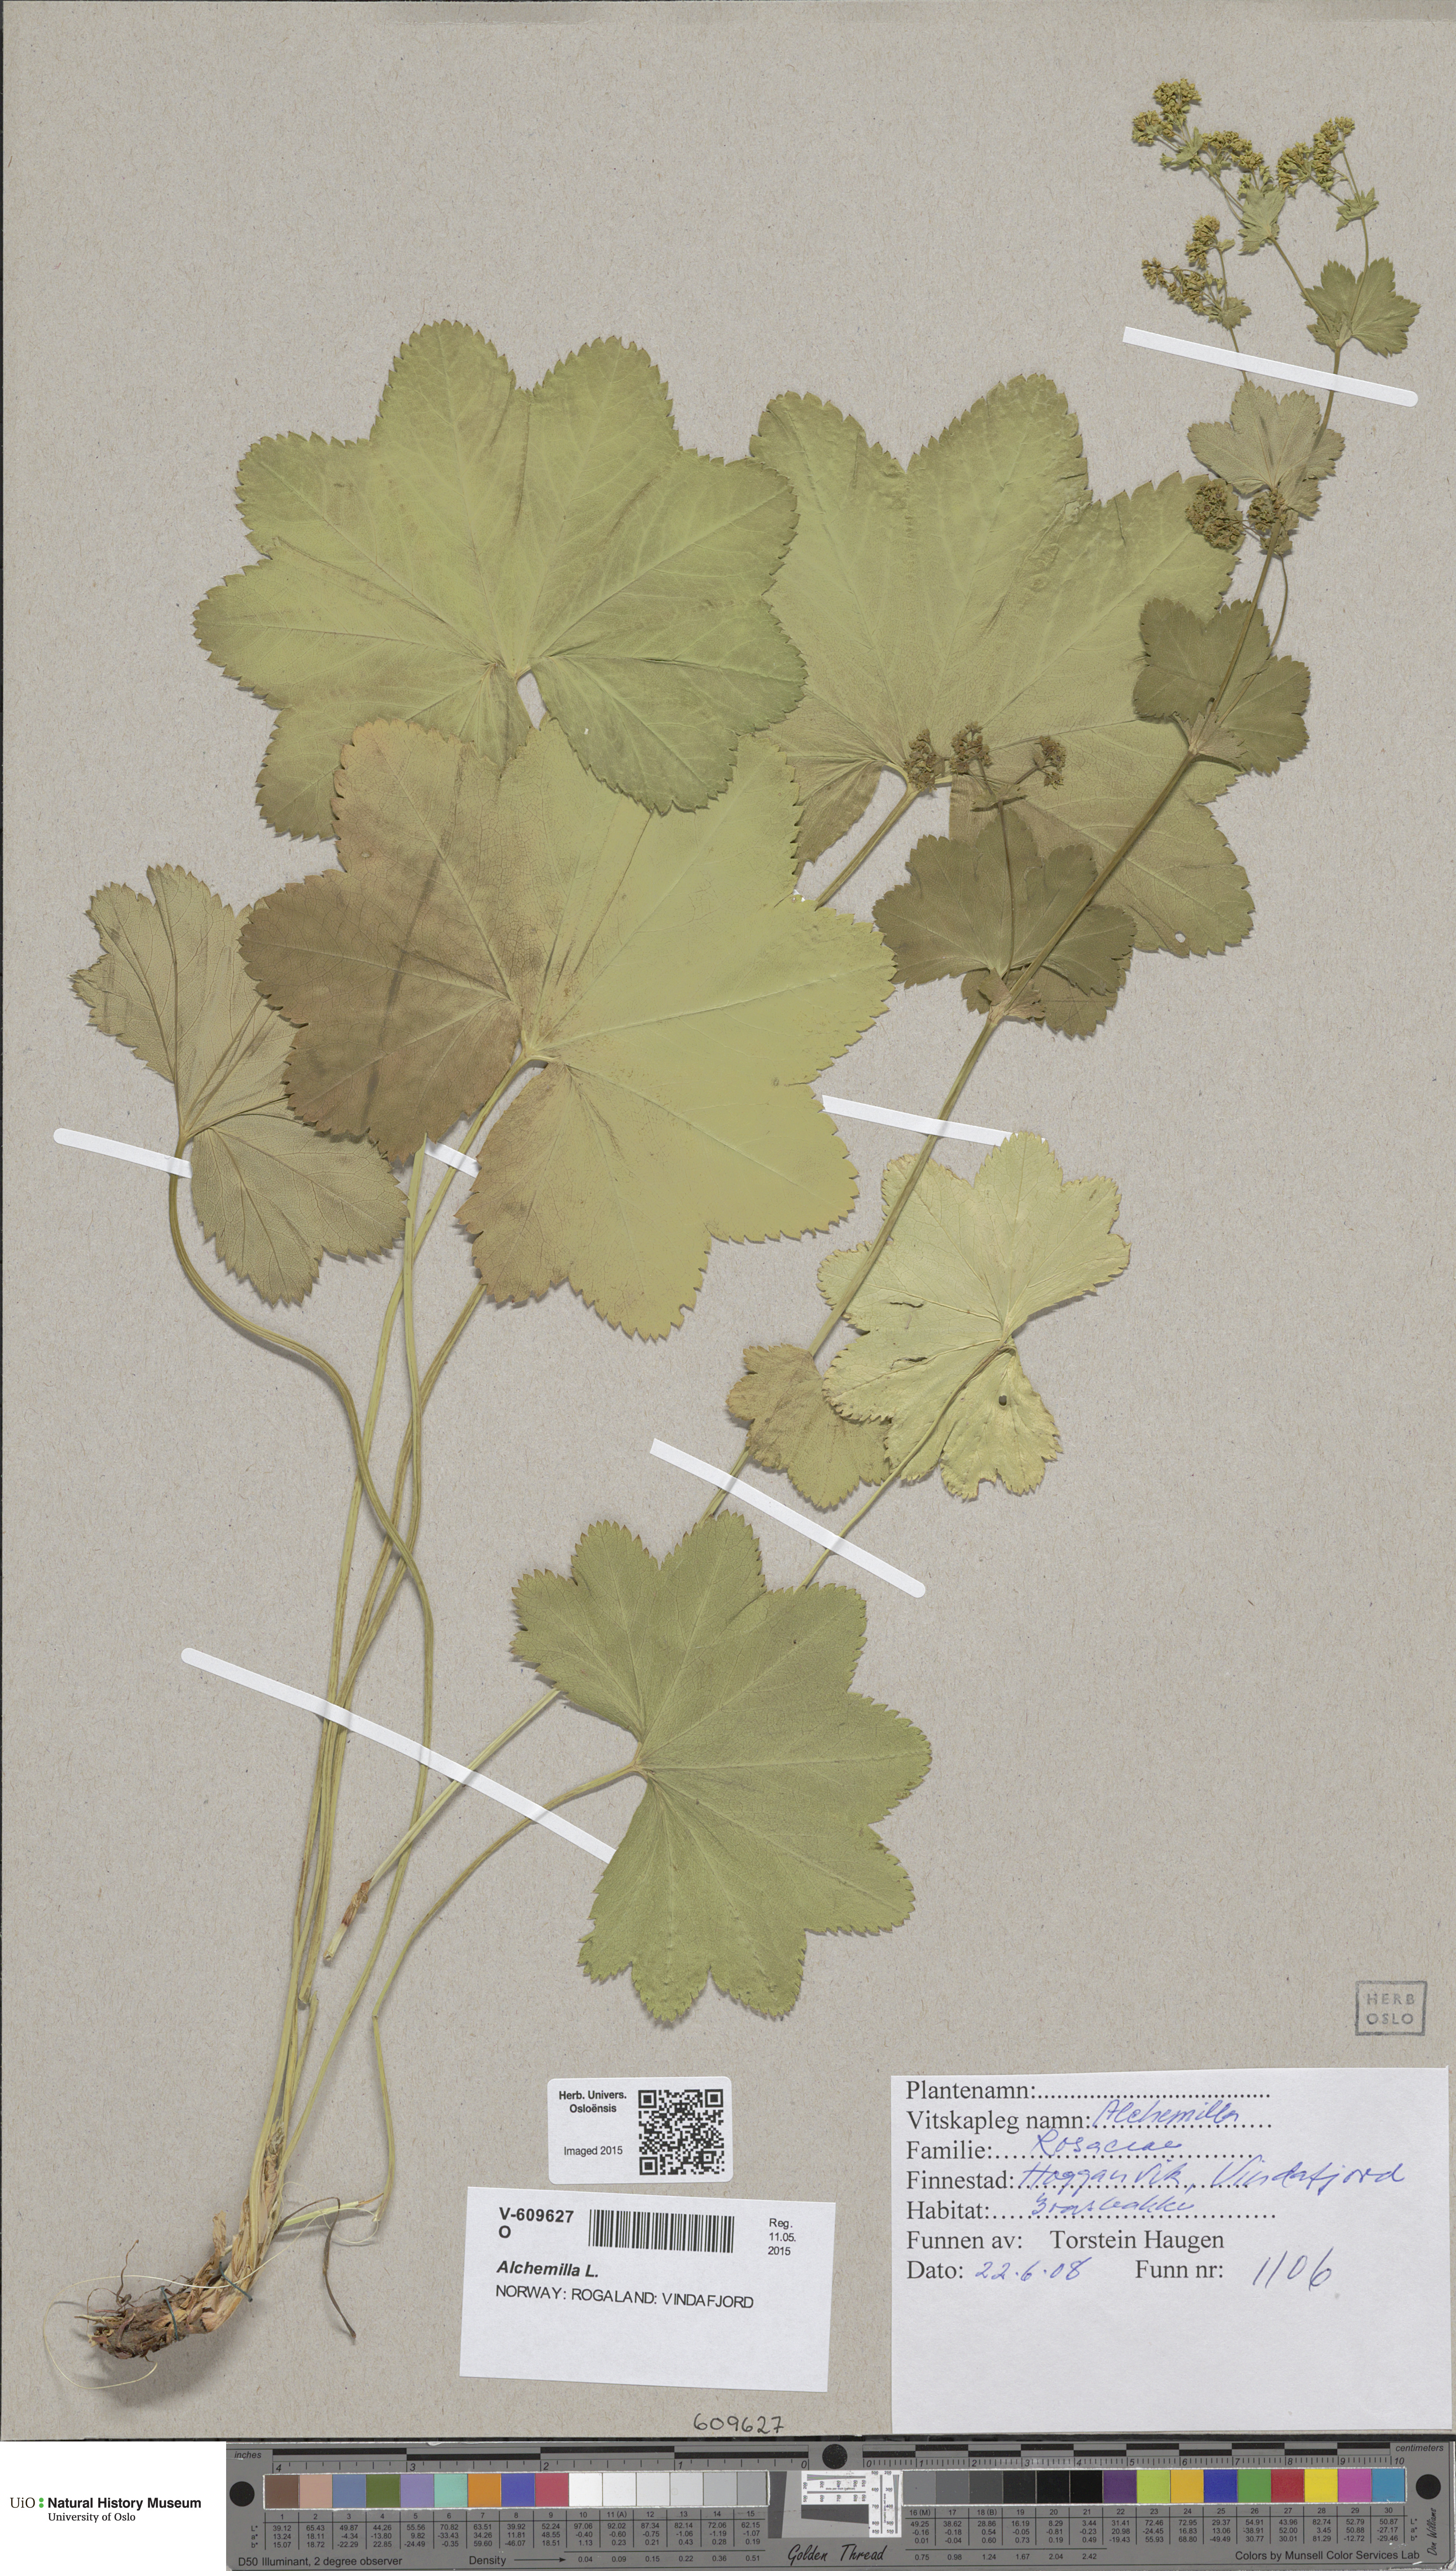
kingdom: Plantae
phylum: Tracheophyta
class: Magnoliopsida
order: Rosales
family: Rosaceae
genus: Alchemilla
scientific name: Alchemilla glabra
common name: Smooth lady's-mantle
